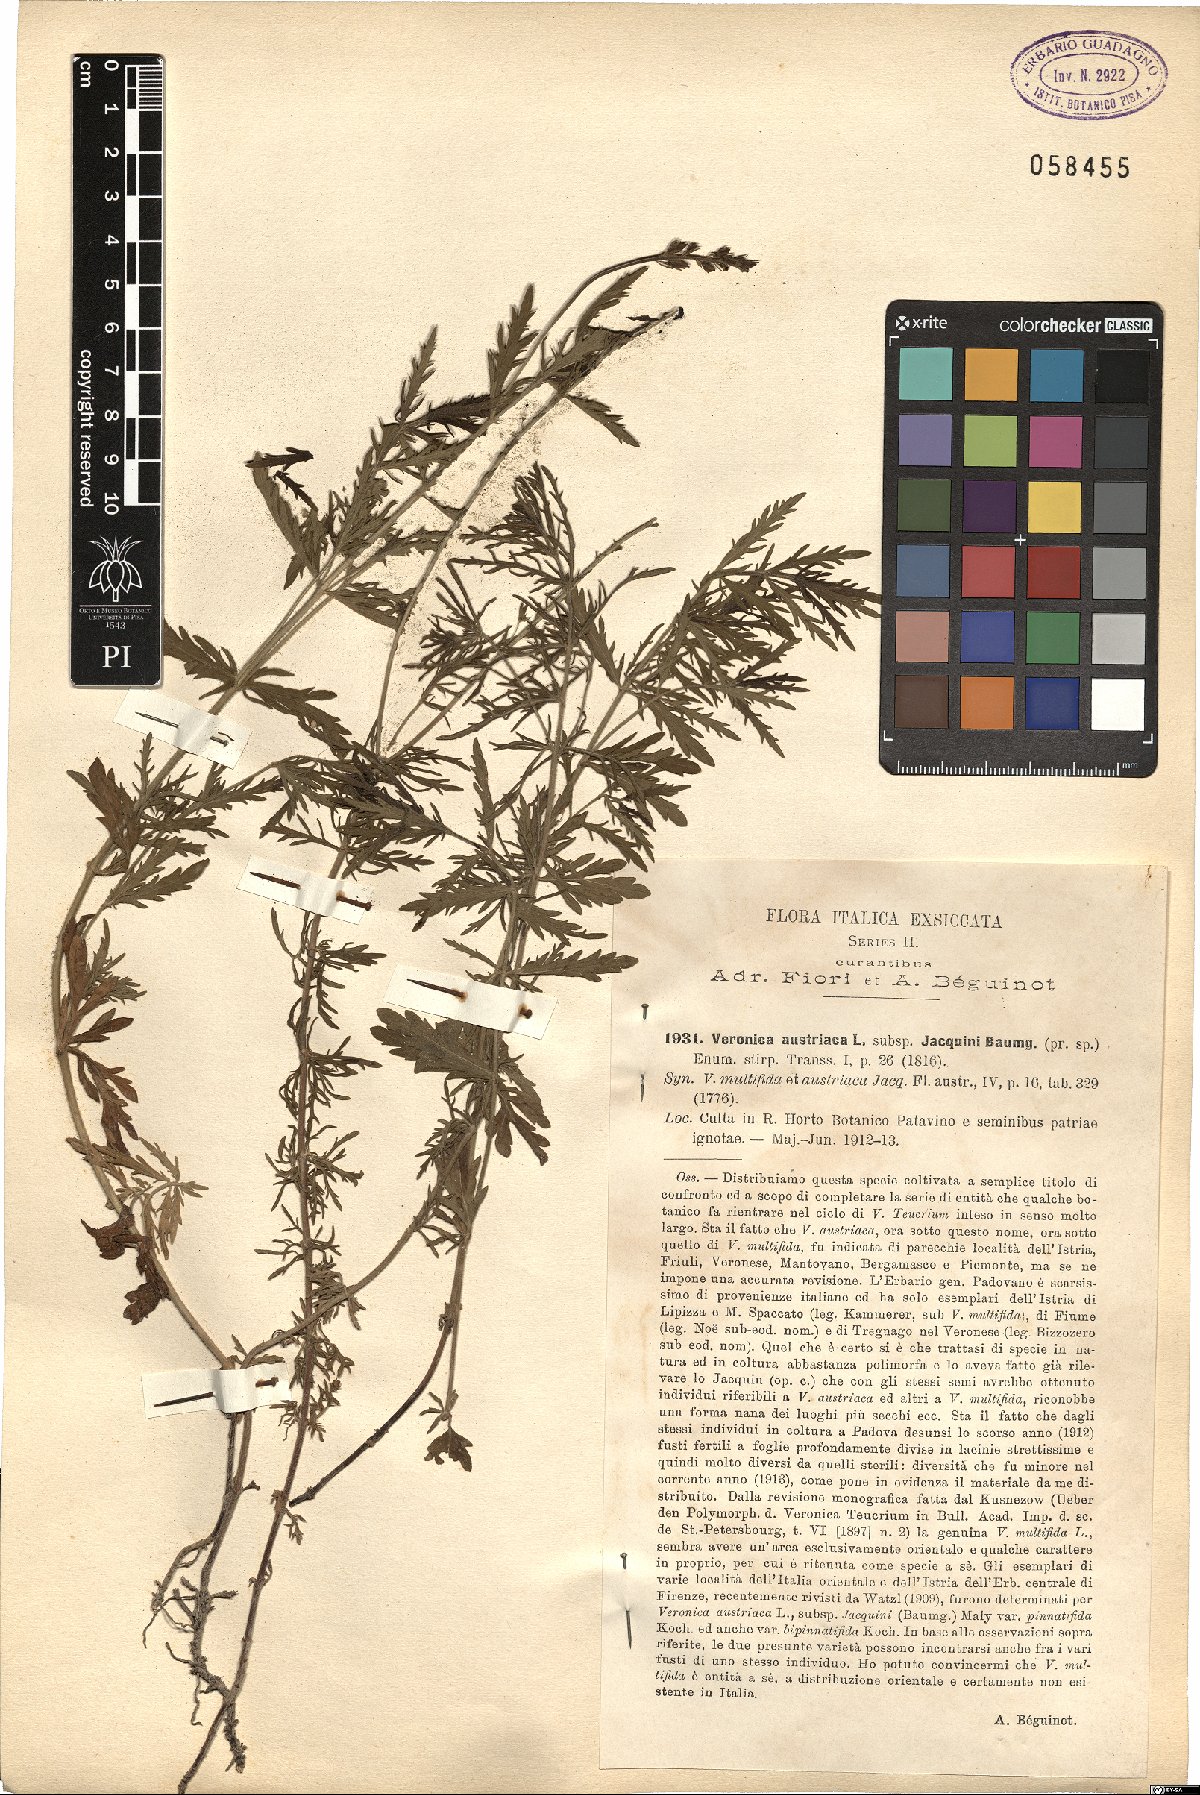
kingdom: Plantae
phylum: Tracheophyta
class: Magnoliopsida
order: Lamiales
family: Plantaginaceae
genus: Veronica
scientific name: Veronica austriaca
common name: Large speedwell
